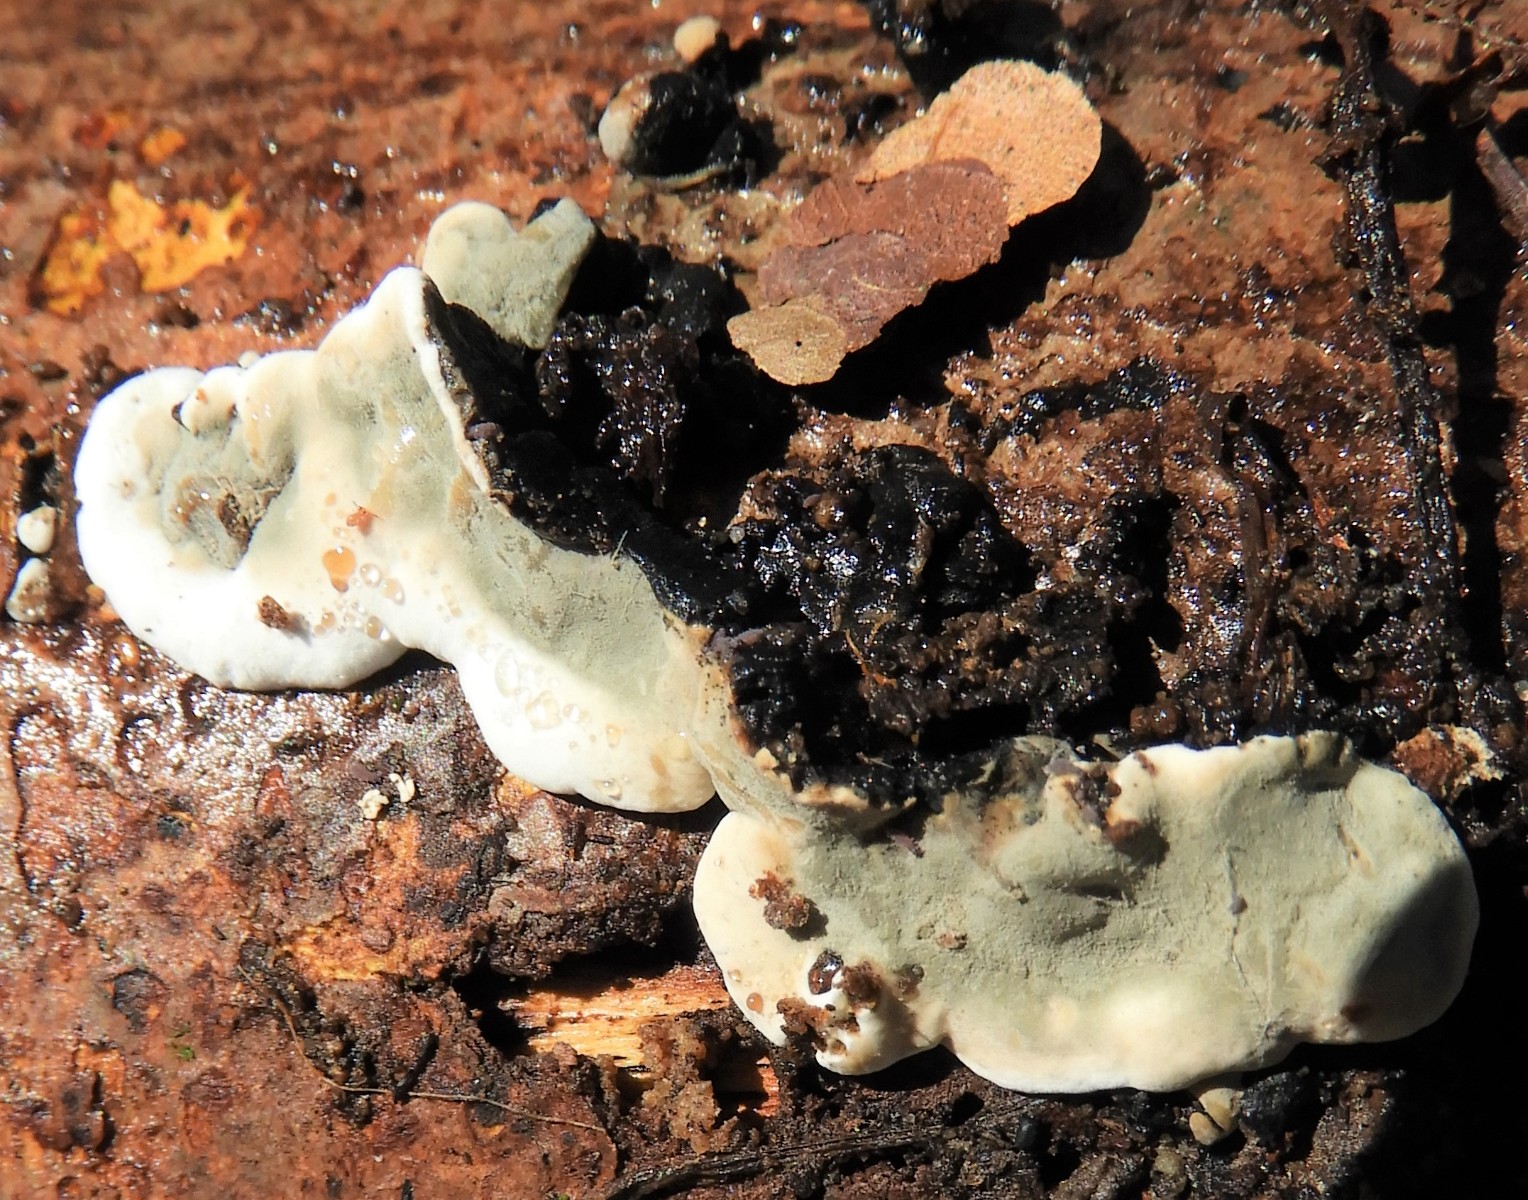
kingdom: Fungi
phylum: Ascomycota
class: Sordariomycetes
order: Xylariales
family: Xylariaceae
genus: Kretzschmaria
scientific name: Kretzschmaria deusta
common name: stor kulsvamp
